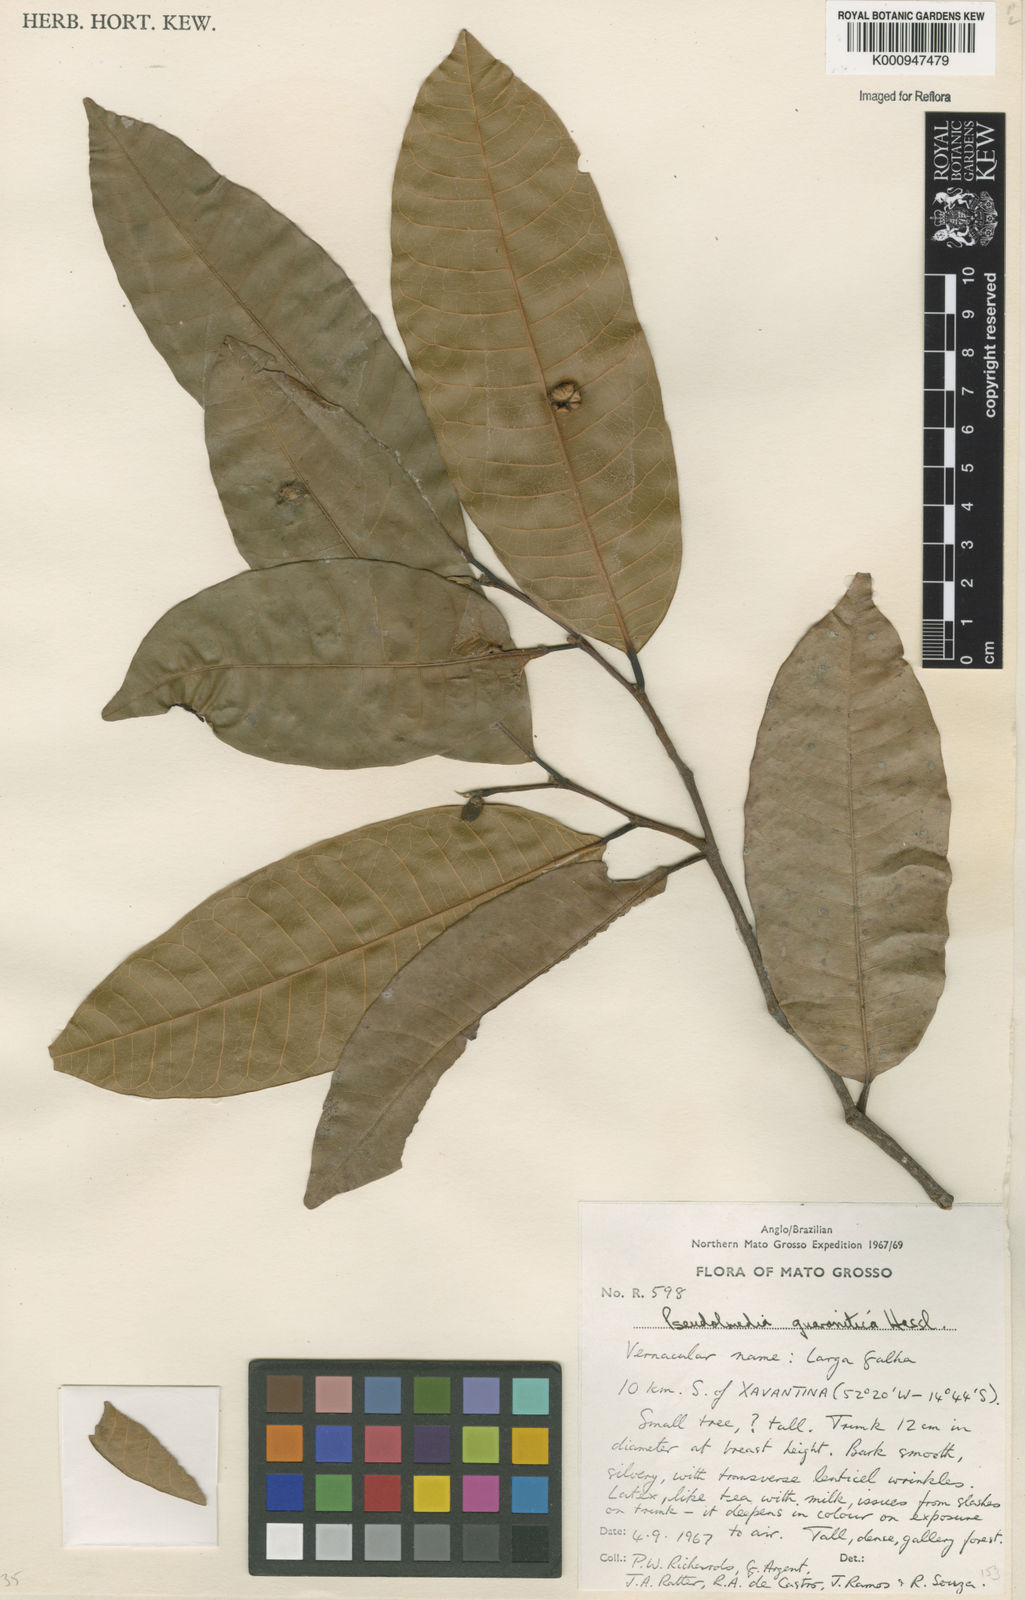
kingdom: Plantae
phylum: Tracheophyta
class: Magnoliopsida
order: Rosales
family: Moraceae
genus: Pseudolmedia
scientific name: Pseudolmedia laevigata
